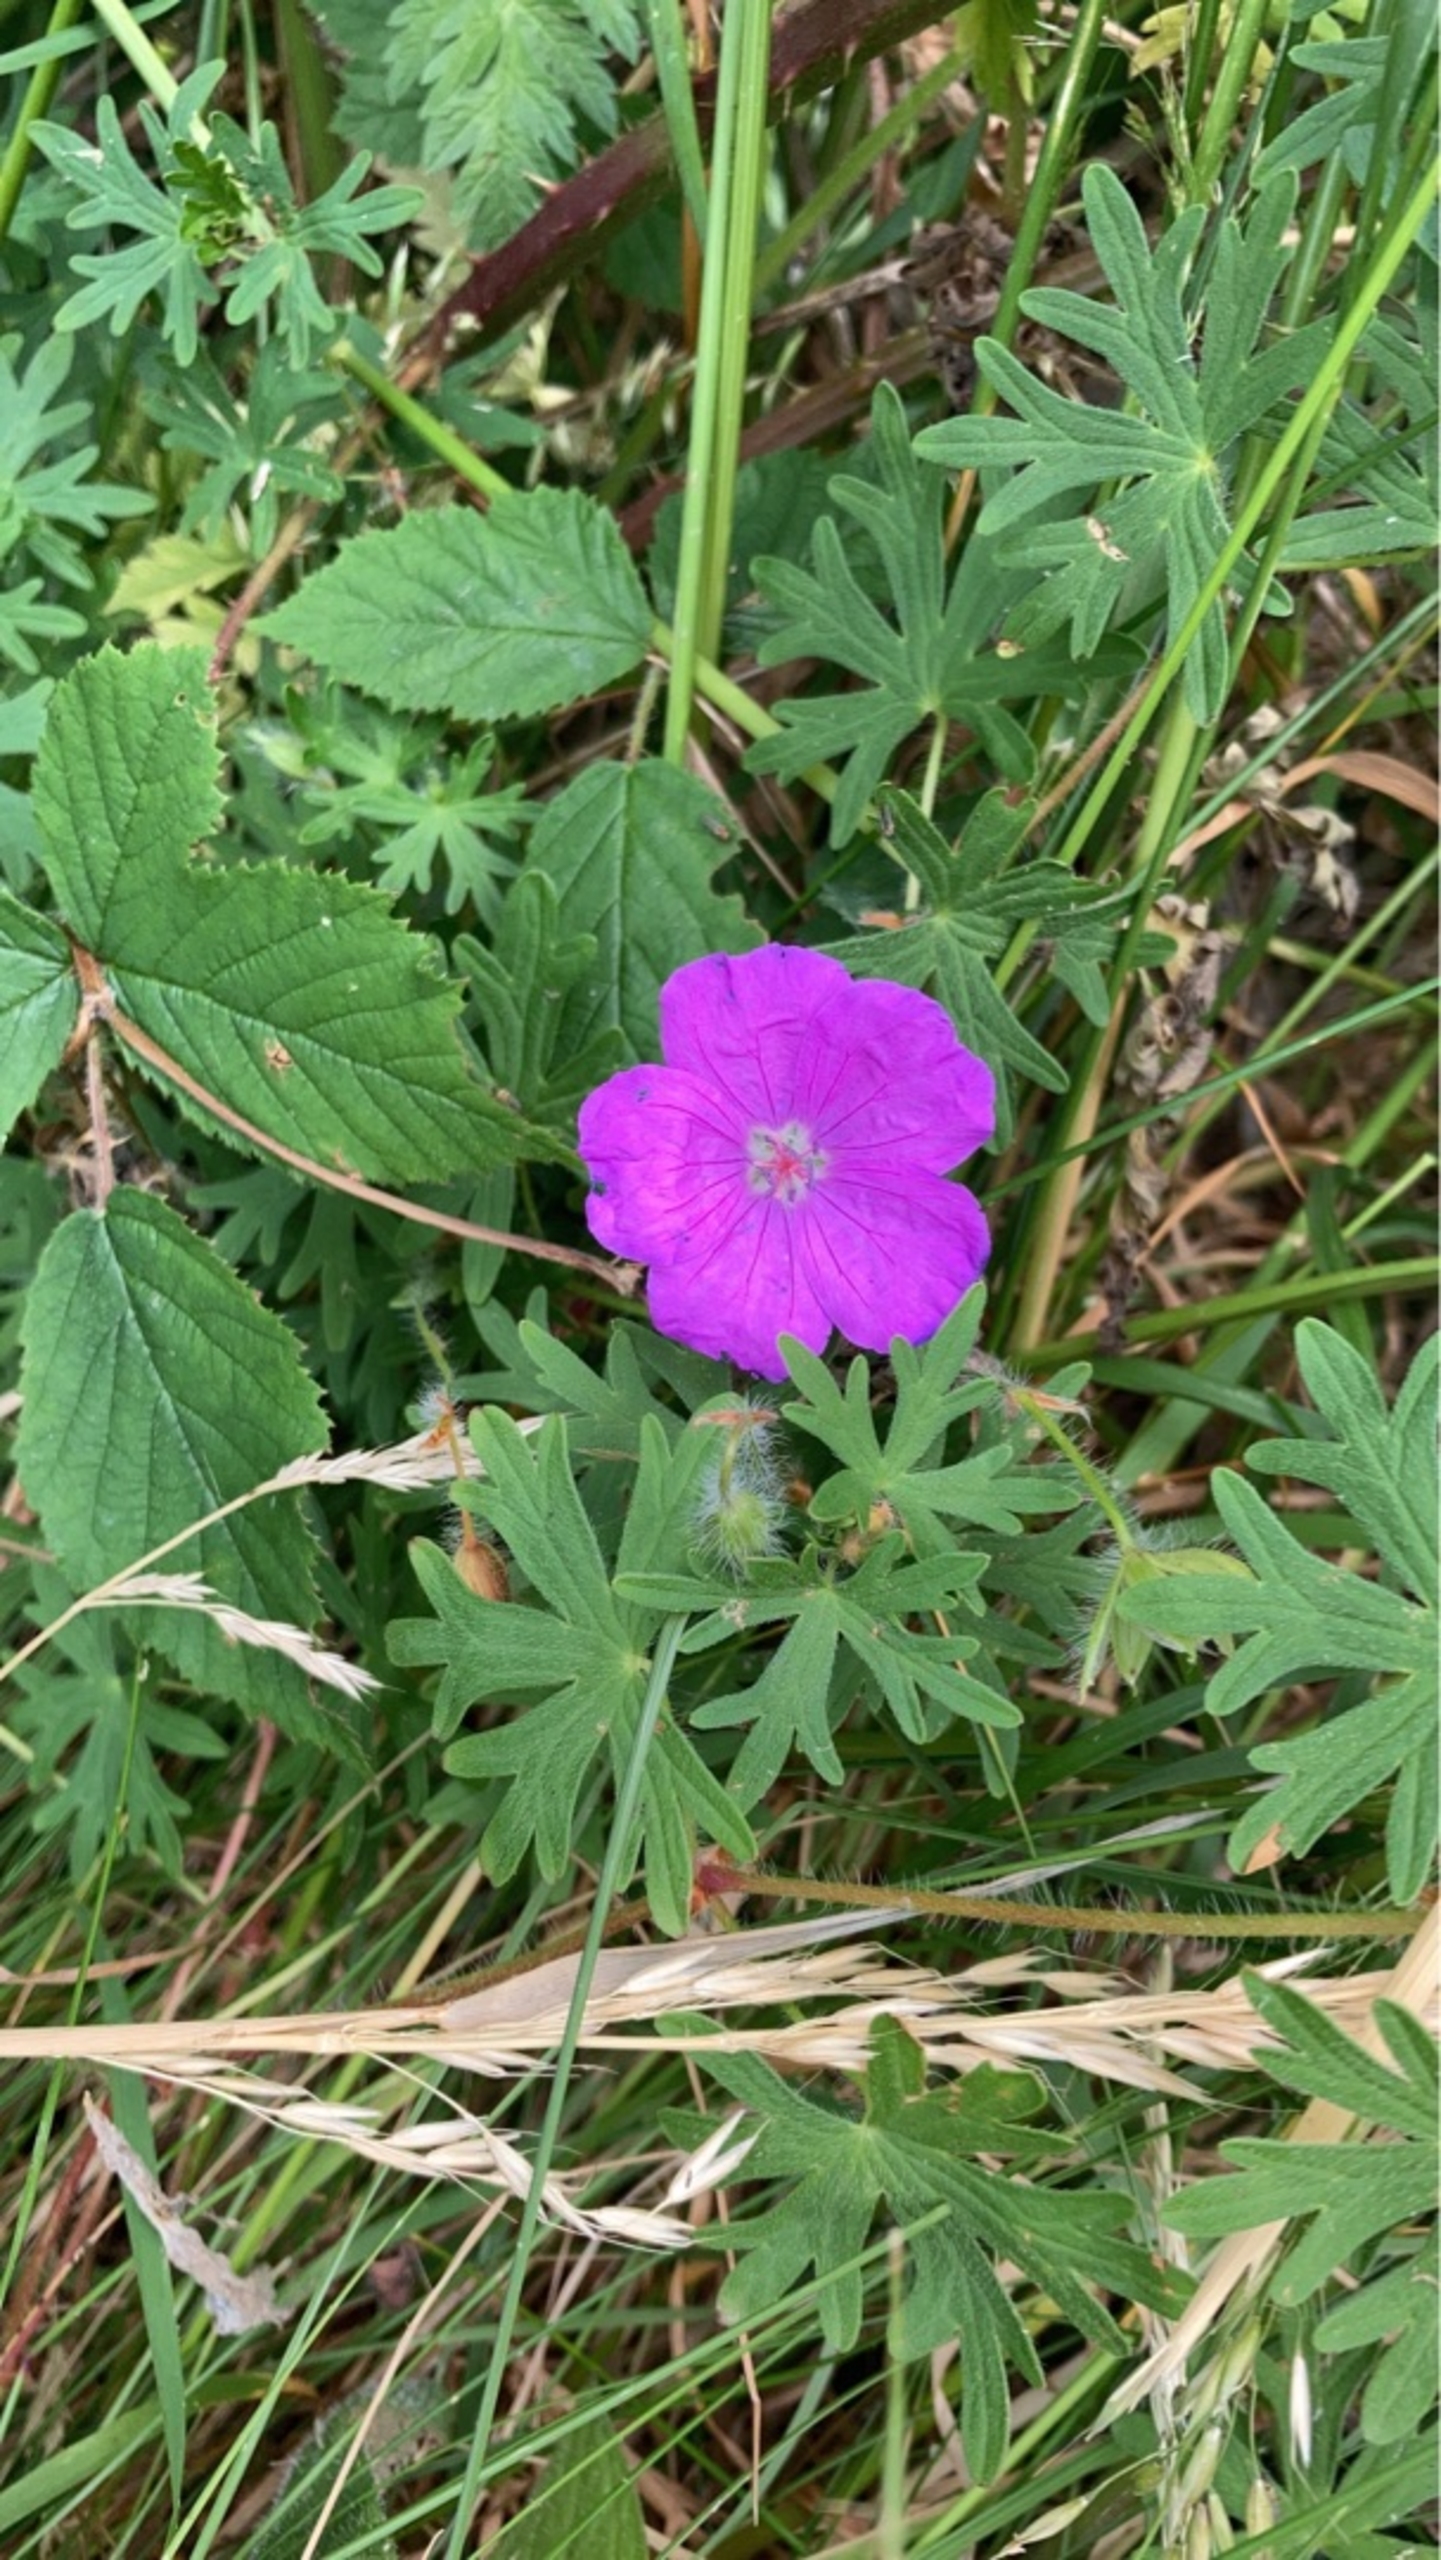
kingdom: Plantae
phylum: Tracheophyta
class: Magnoliopsida
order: Geraniales
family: Geraniaceae
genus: Geranium
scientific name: Geranium sanguineum
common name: Blodrød storkenæb
